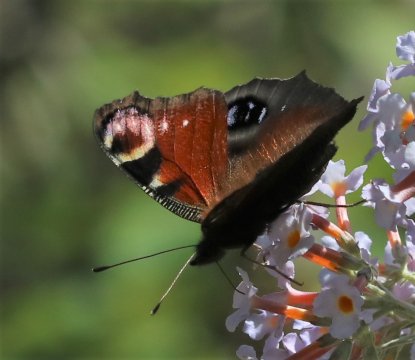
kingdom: Animalia
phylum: Arthropoda
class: Insecta
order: Lepidoptera
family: Nymphalidae
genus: Aglais
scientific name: Aglais io
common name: European Peacock
